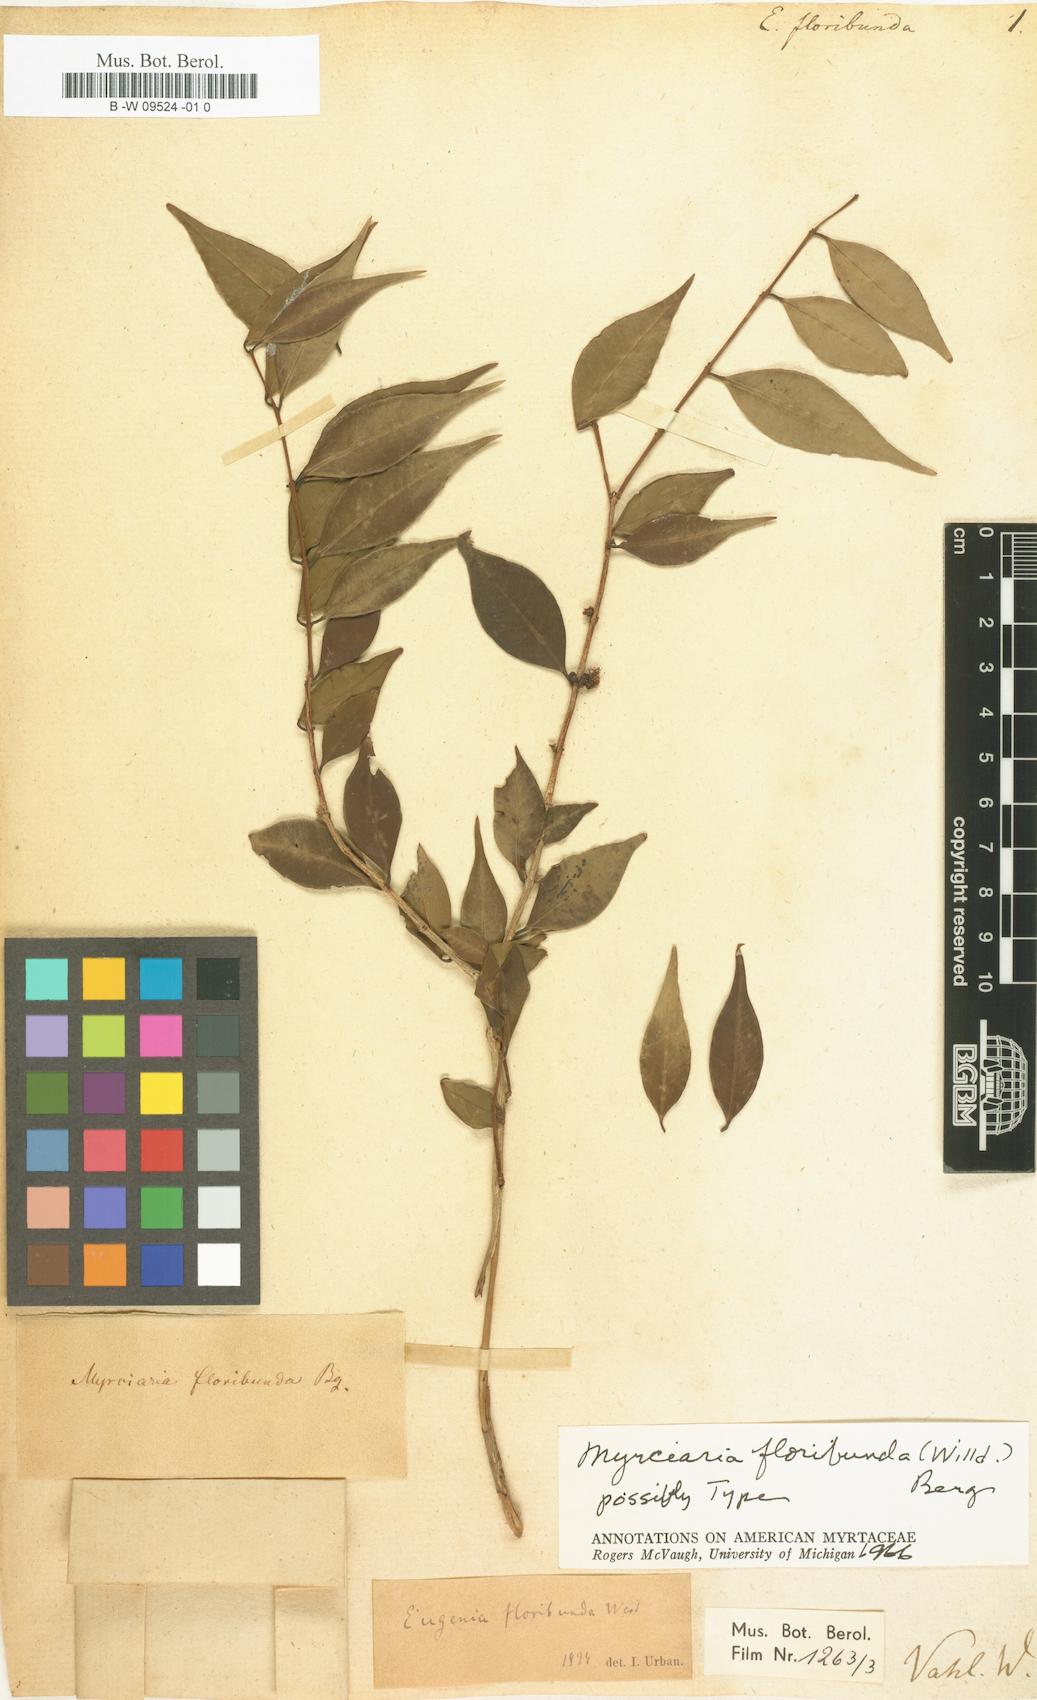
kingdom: Plantae
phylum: Tracheophyta
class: Magnoliopsida
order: Myrtales
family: Myrtaceae
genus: Eugenia
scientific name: Eugenia floribunda
